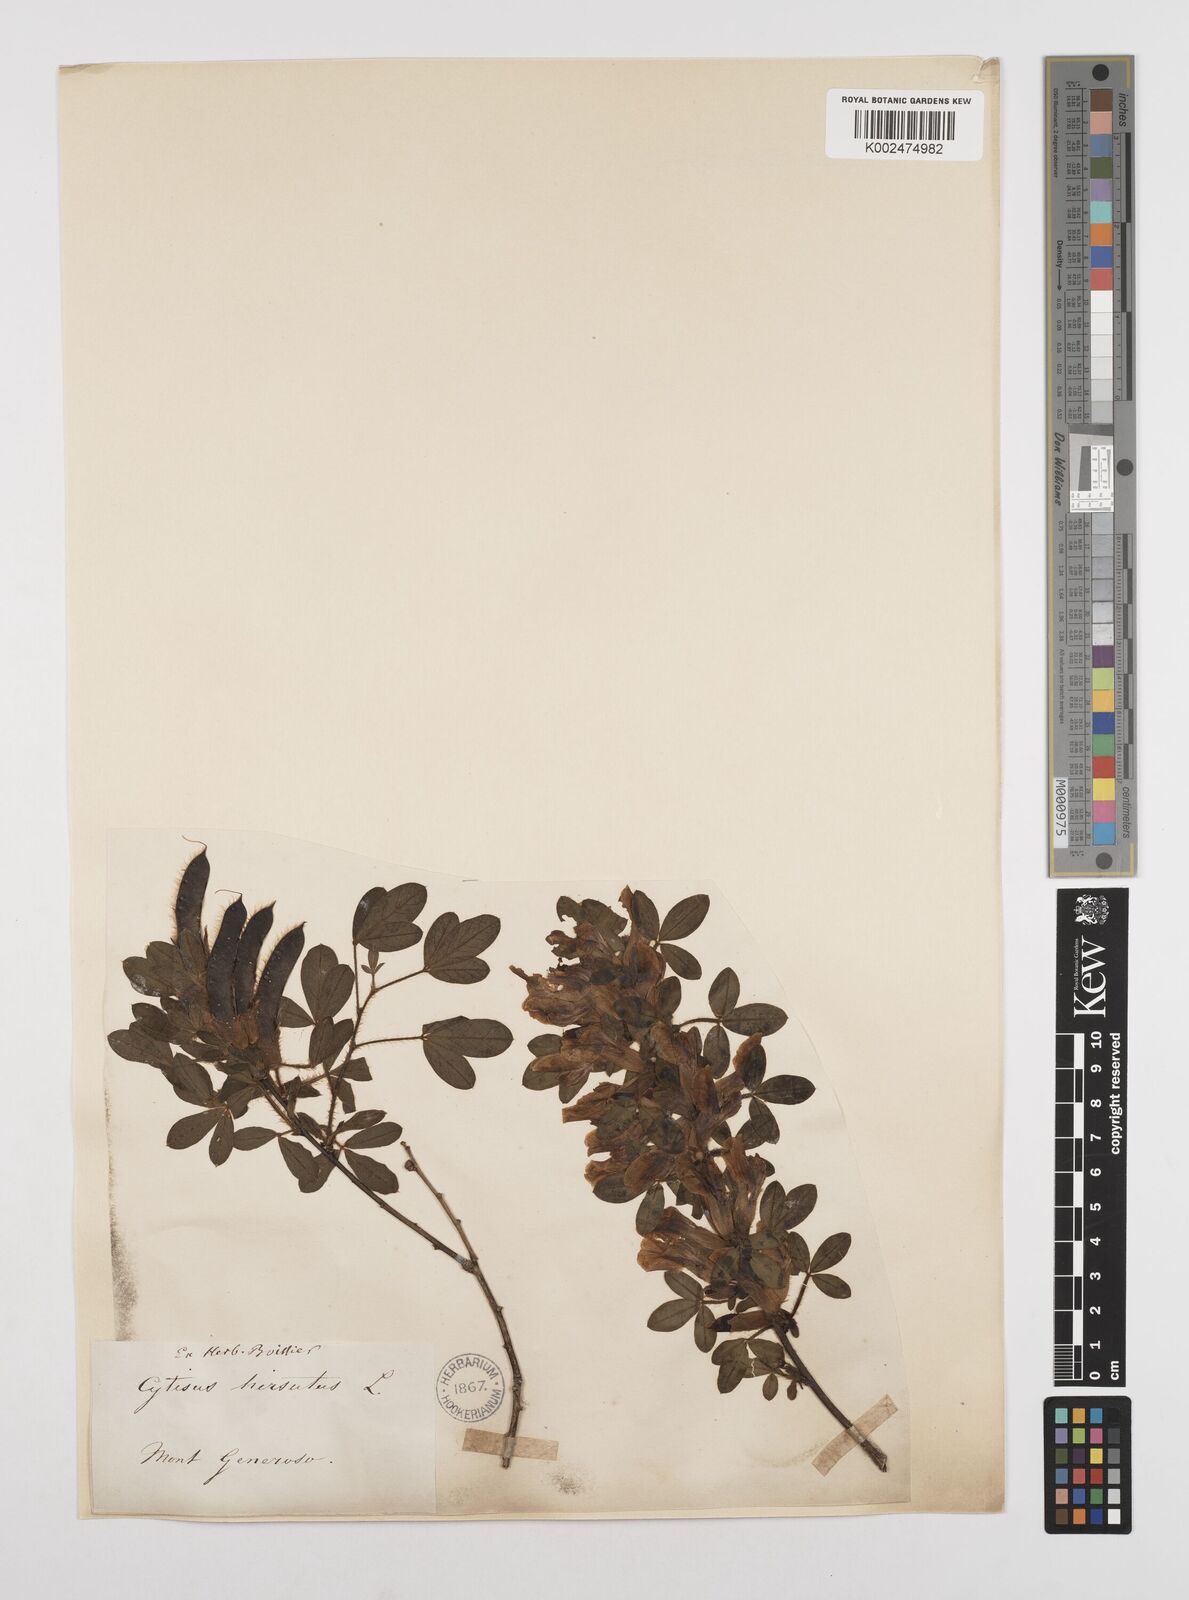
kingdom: Plantae
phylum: Tracheophyta
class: Magnoliopsida
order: Fabales
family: Fabaceae
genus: Chamaecytisus
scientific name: Chamaecytisus hirsutus
